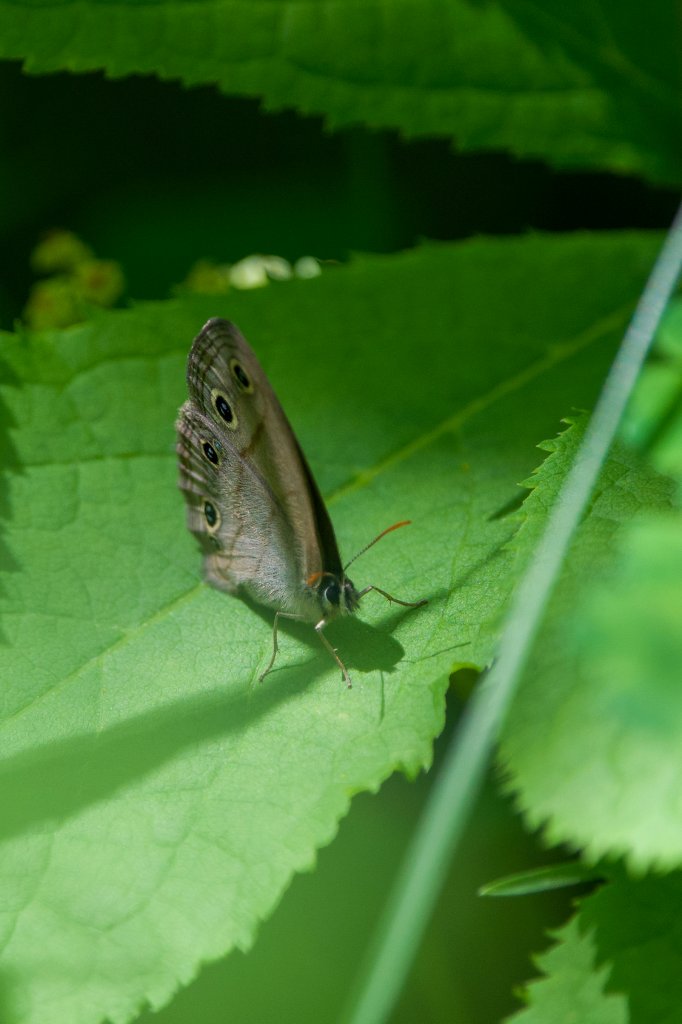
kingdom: Animalia
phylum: Arthropoda
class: Insecta
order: Lepidoptera
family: Nymphalidae
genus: Euptychia
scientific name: Euptychia cymela
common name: Little Wood Satyr
